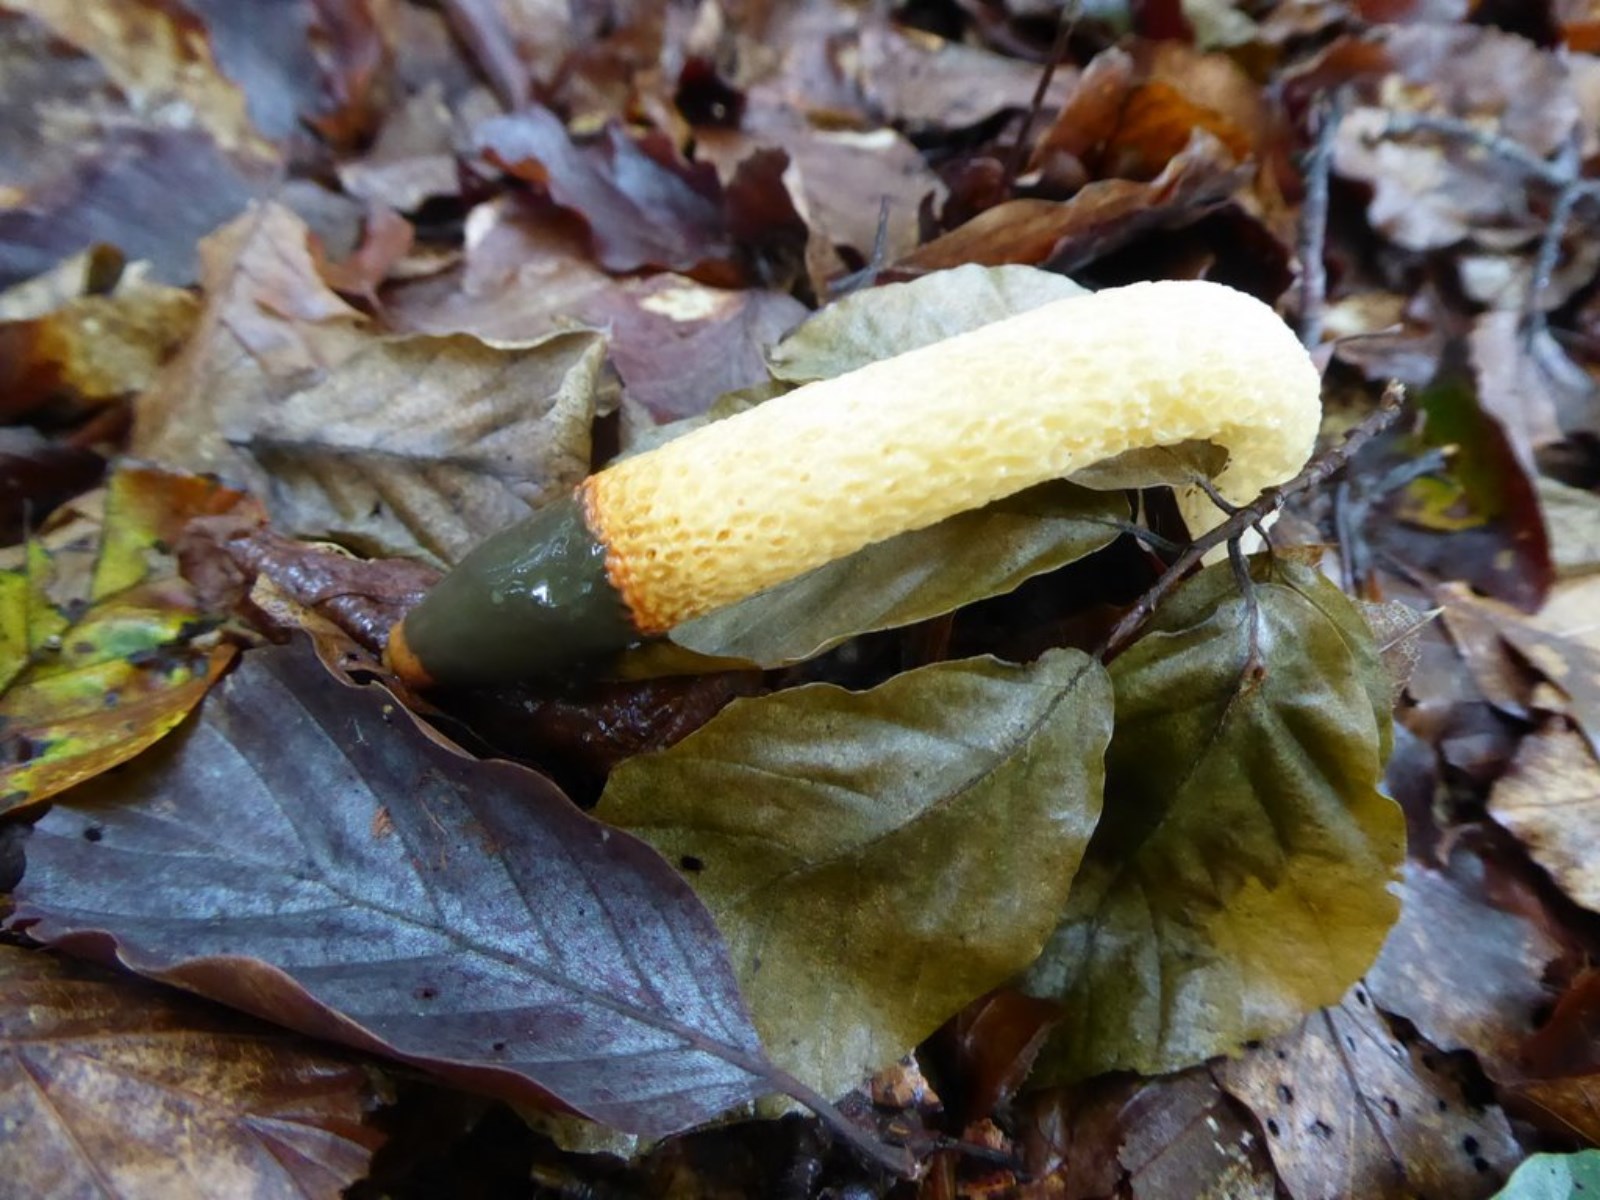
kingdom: Fungi
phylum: Basidiomycota
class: Agaricomycetes
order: Phallales
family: Phallaceae
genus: Mutinus
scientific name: Mutinus caninus
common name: hunde-stinksvamp
